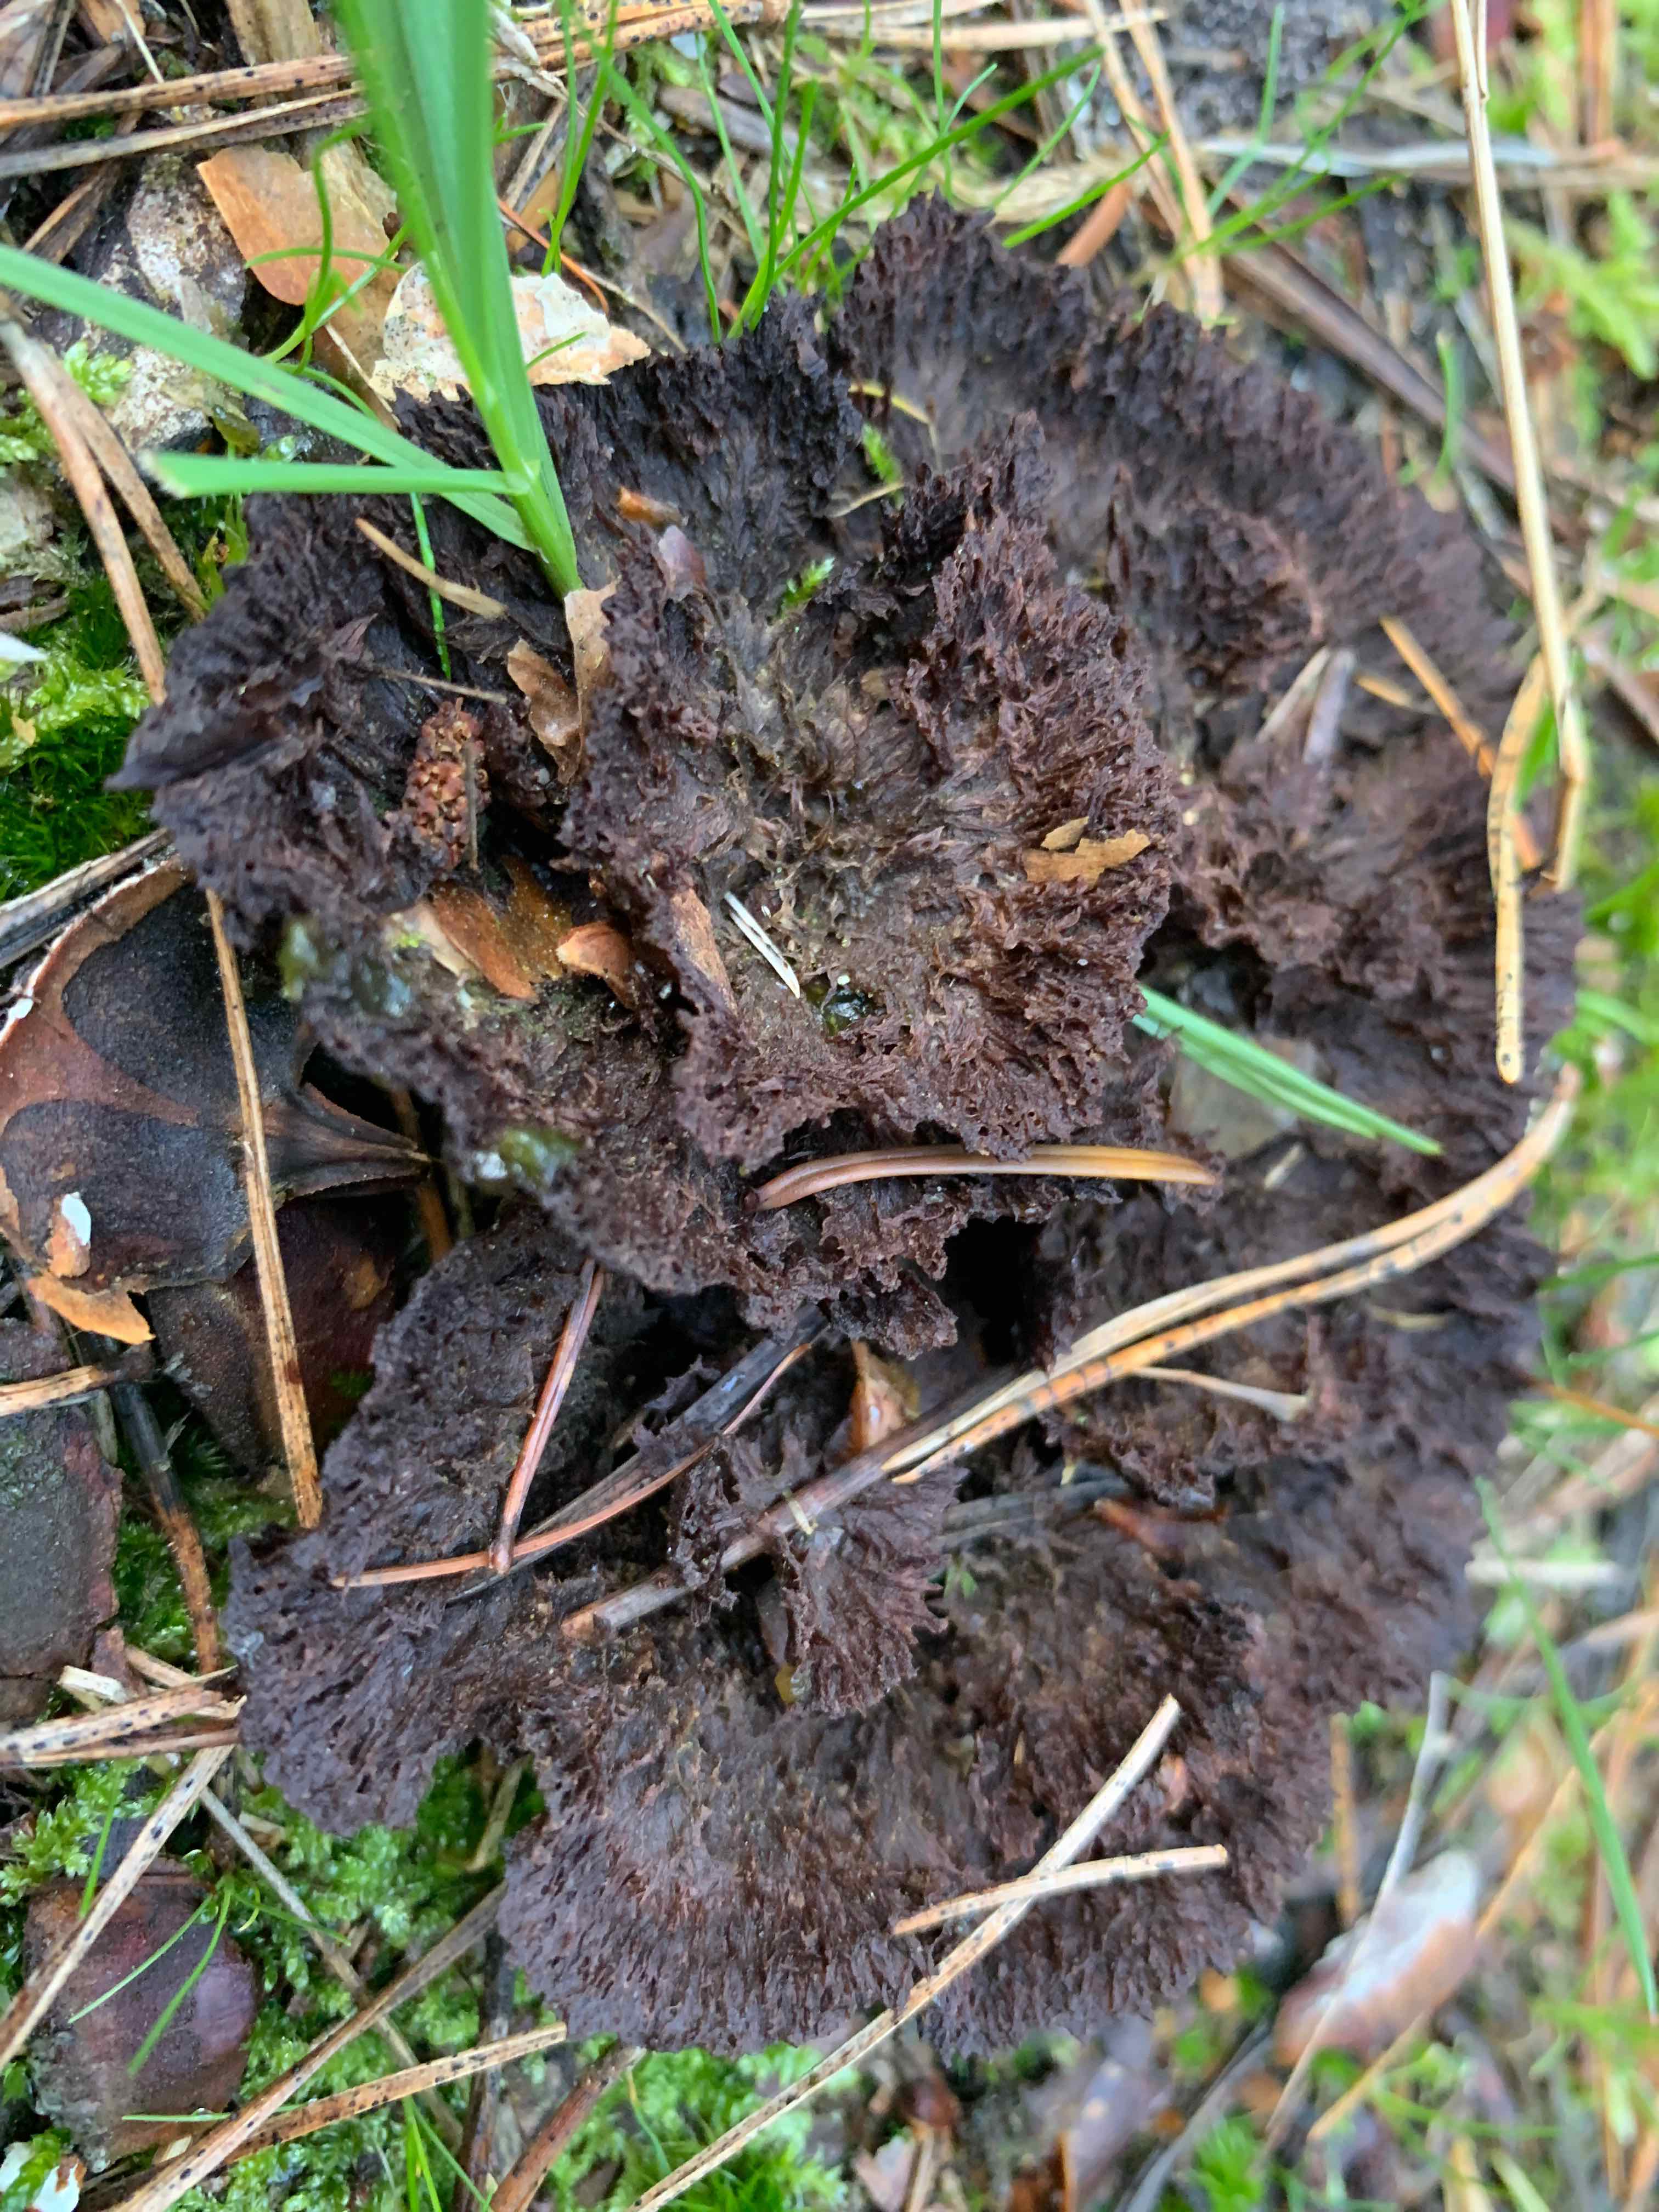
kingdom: Fungi
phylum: Basidiomycota
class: Agaricomycetes
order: Thelephorales
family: Thelephoraceae
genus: Thelephora
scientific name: Thelephora terrestris
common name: fliget frynsesvamp
